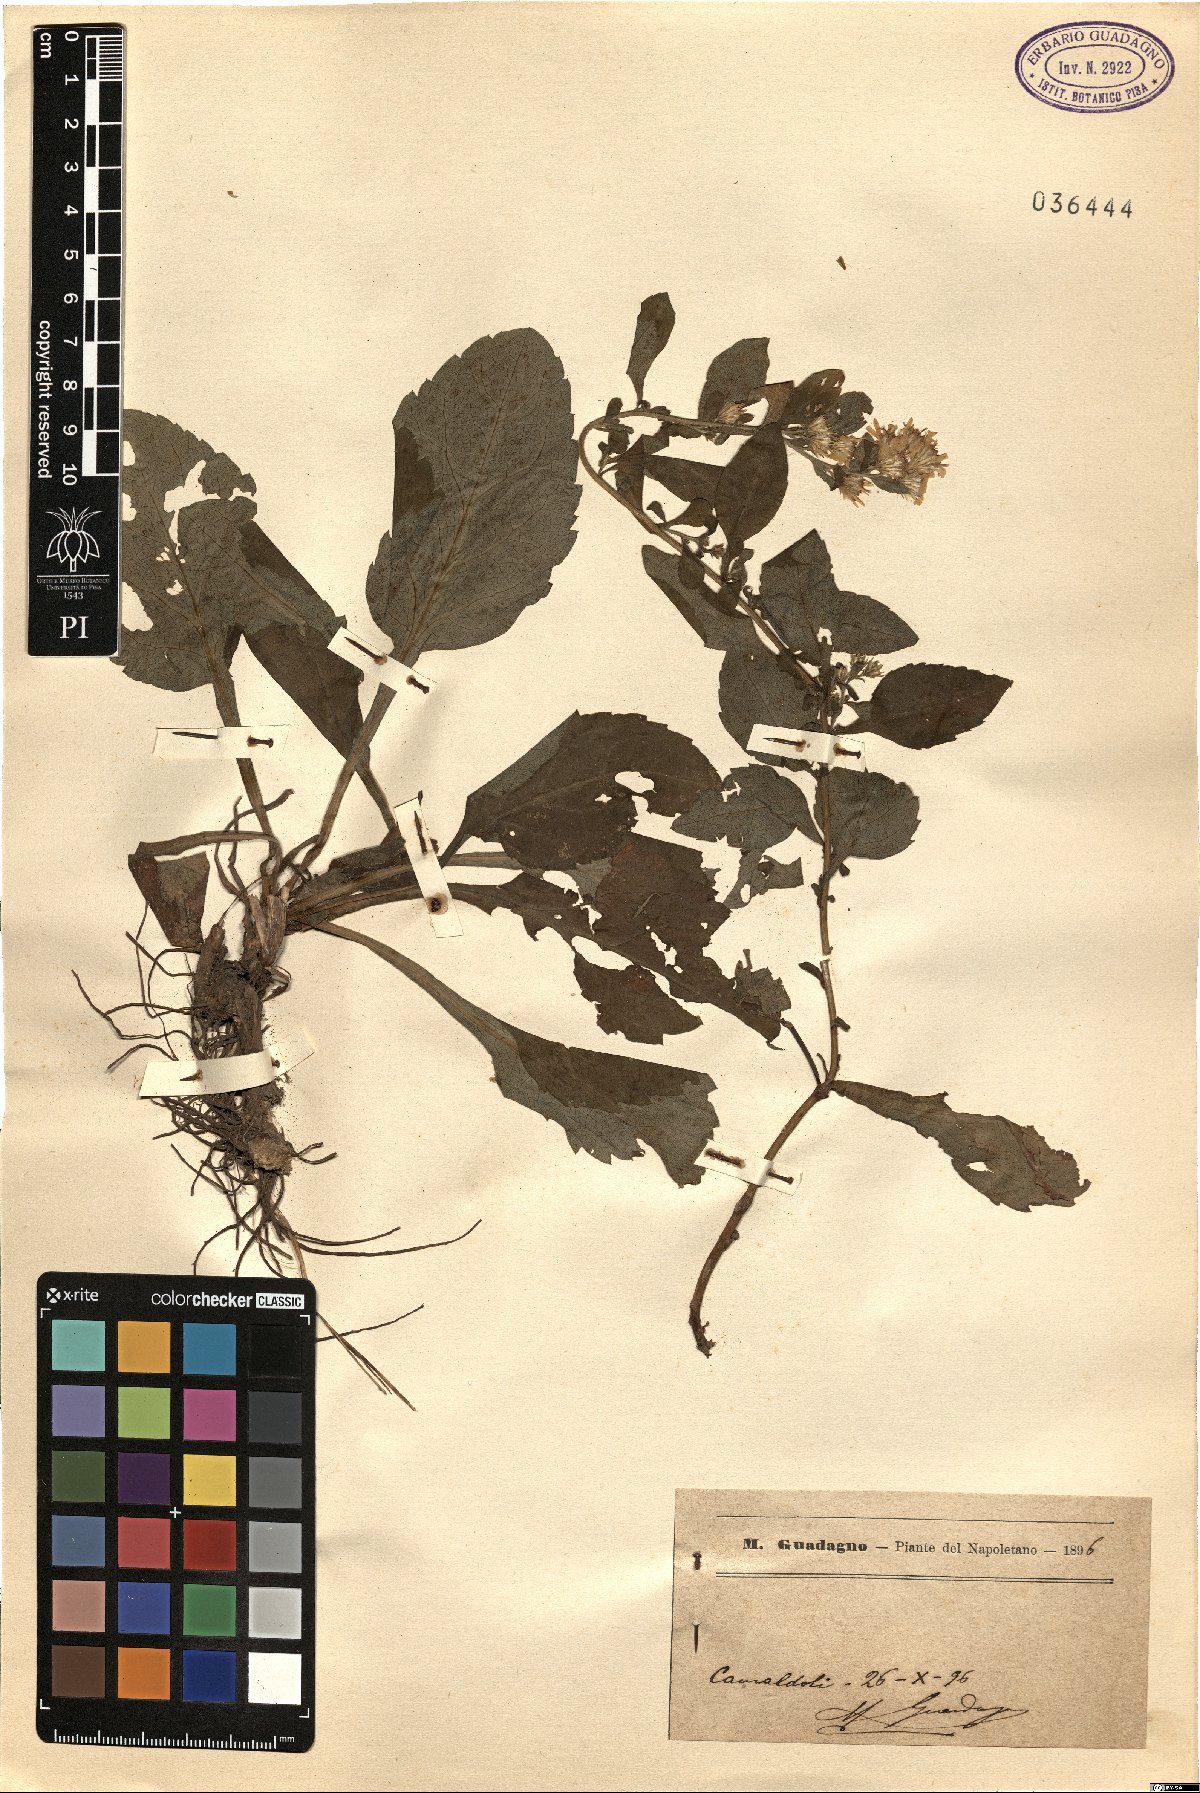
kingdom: Plantae
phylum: Tracheophyta
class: Magnoliopsida
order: Asterales
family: Asteraceae
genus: Solidago
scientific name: Solidago
